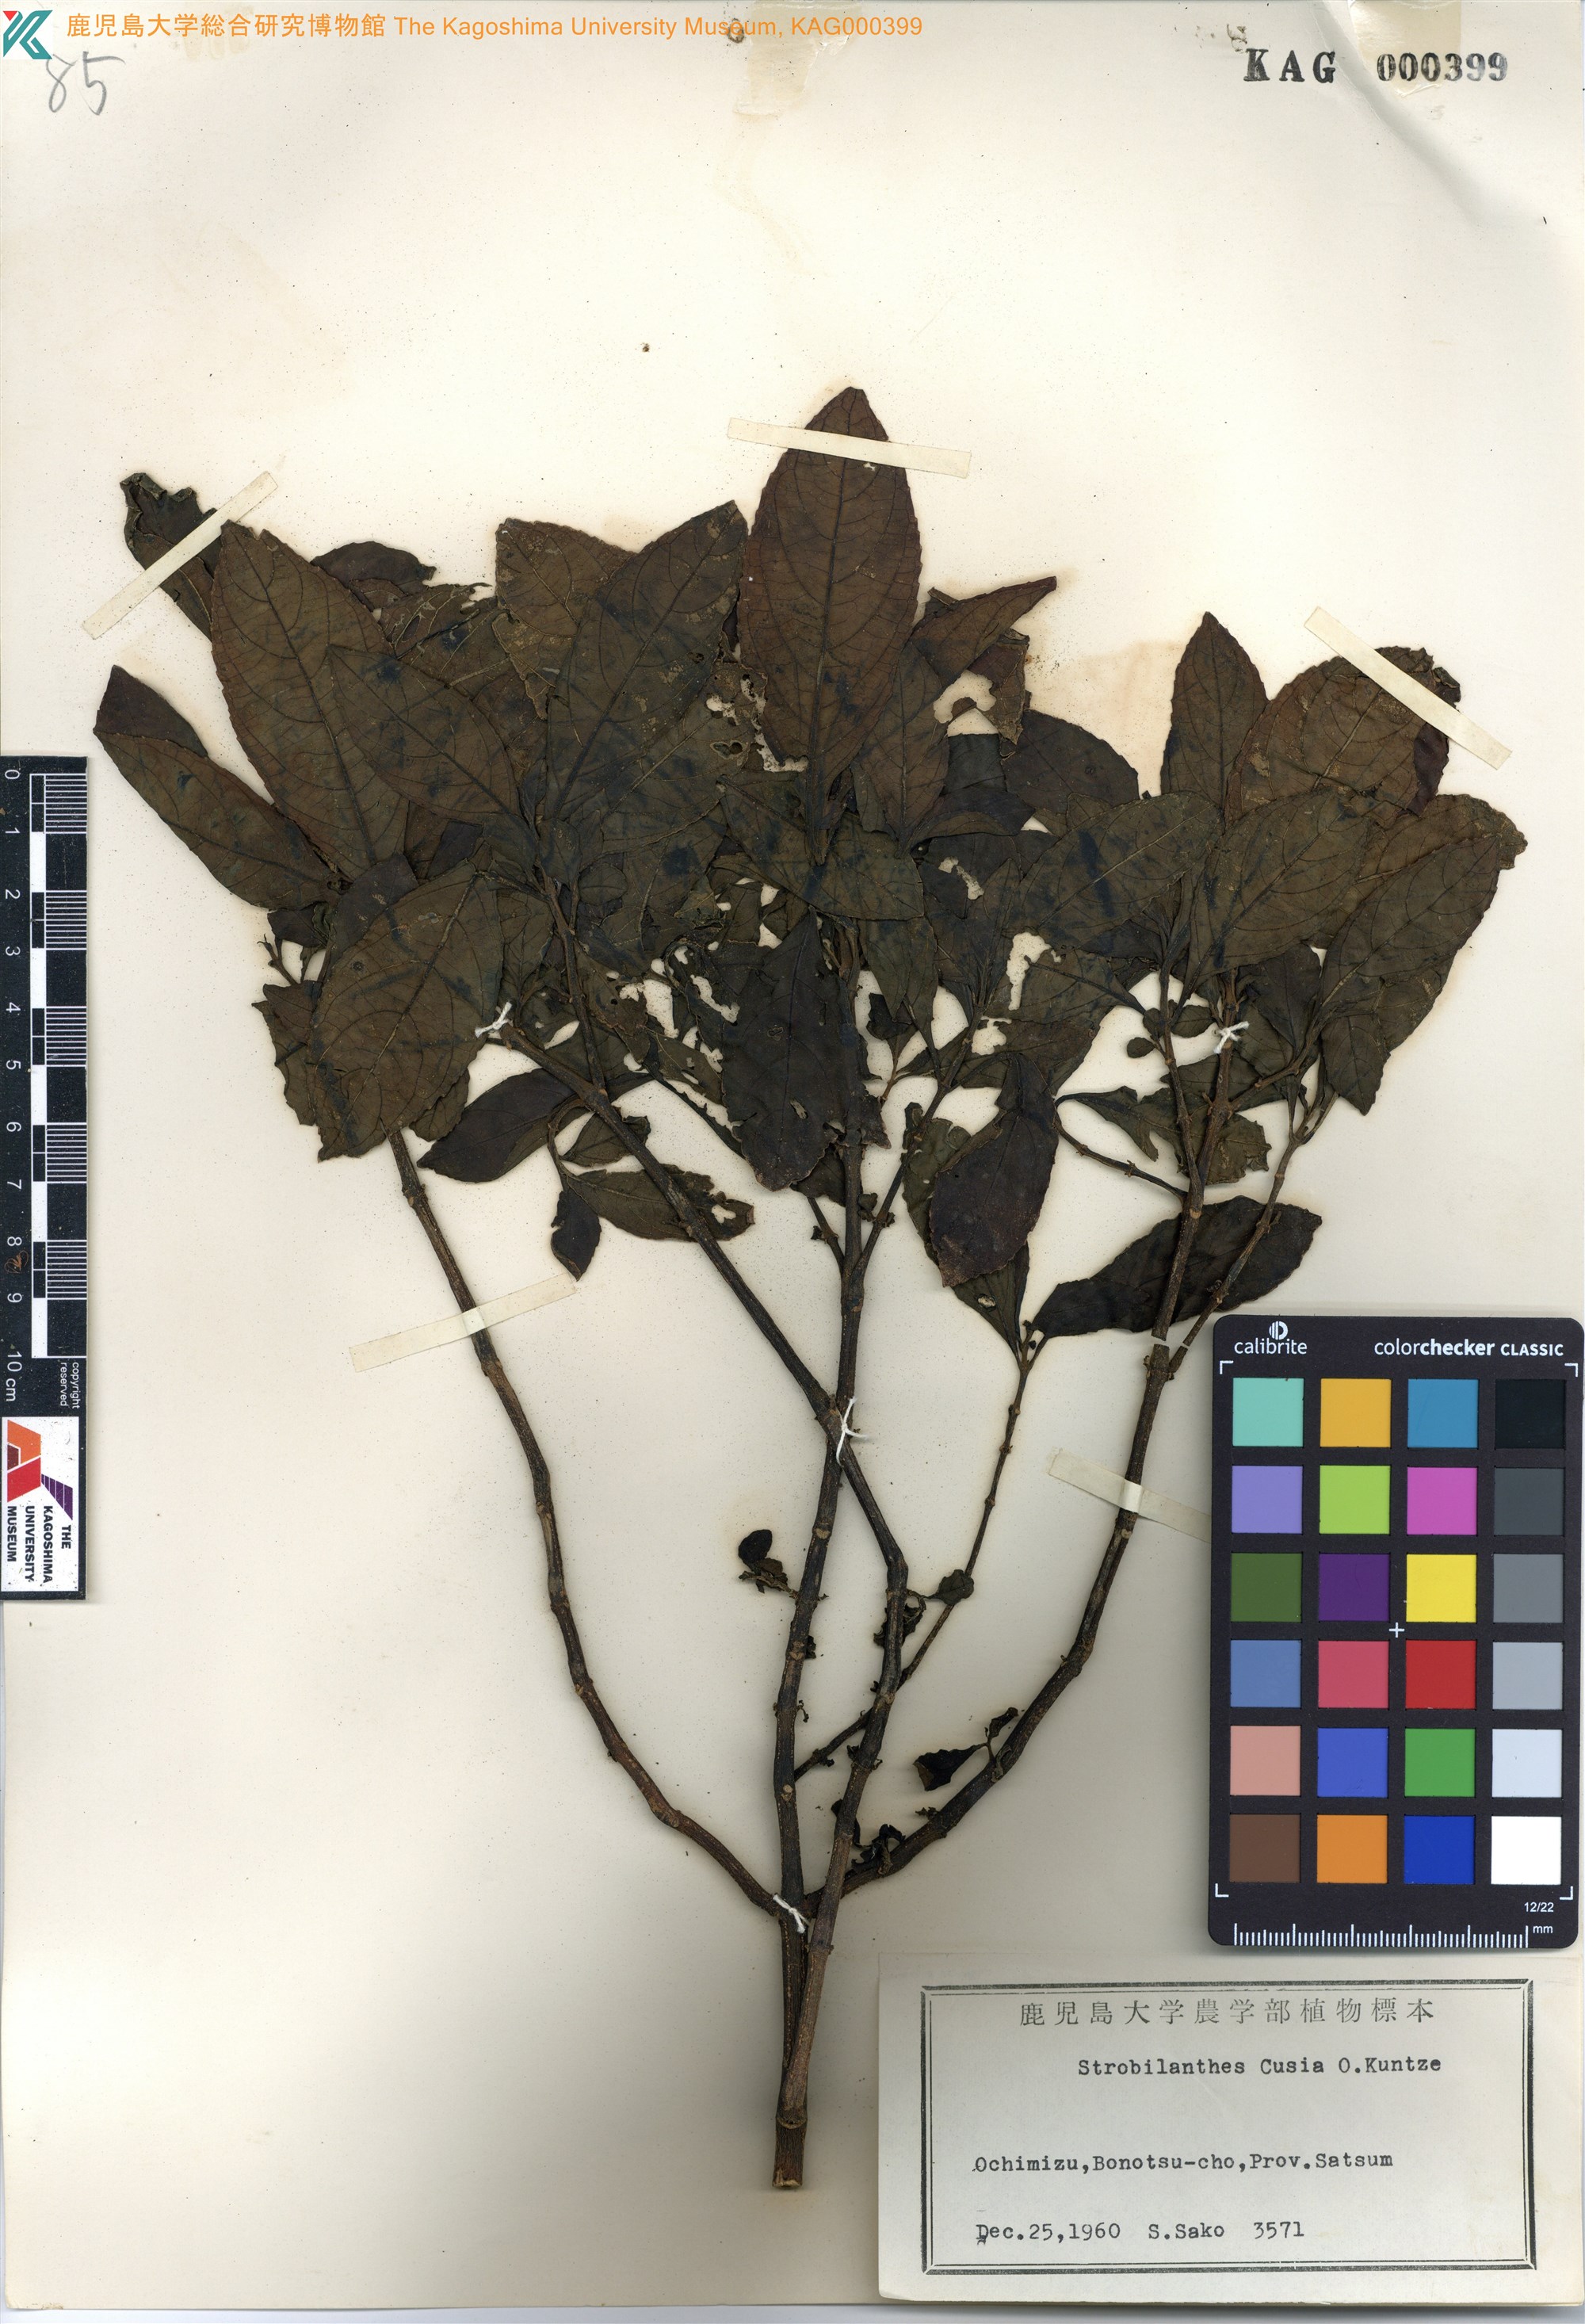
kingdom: Plantae
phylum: Tracheophyta
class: Magnoliopsida
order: Lamiales
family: Acanthaceae
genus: Strobilanthes
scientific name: Strobilanthes cusia
